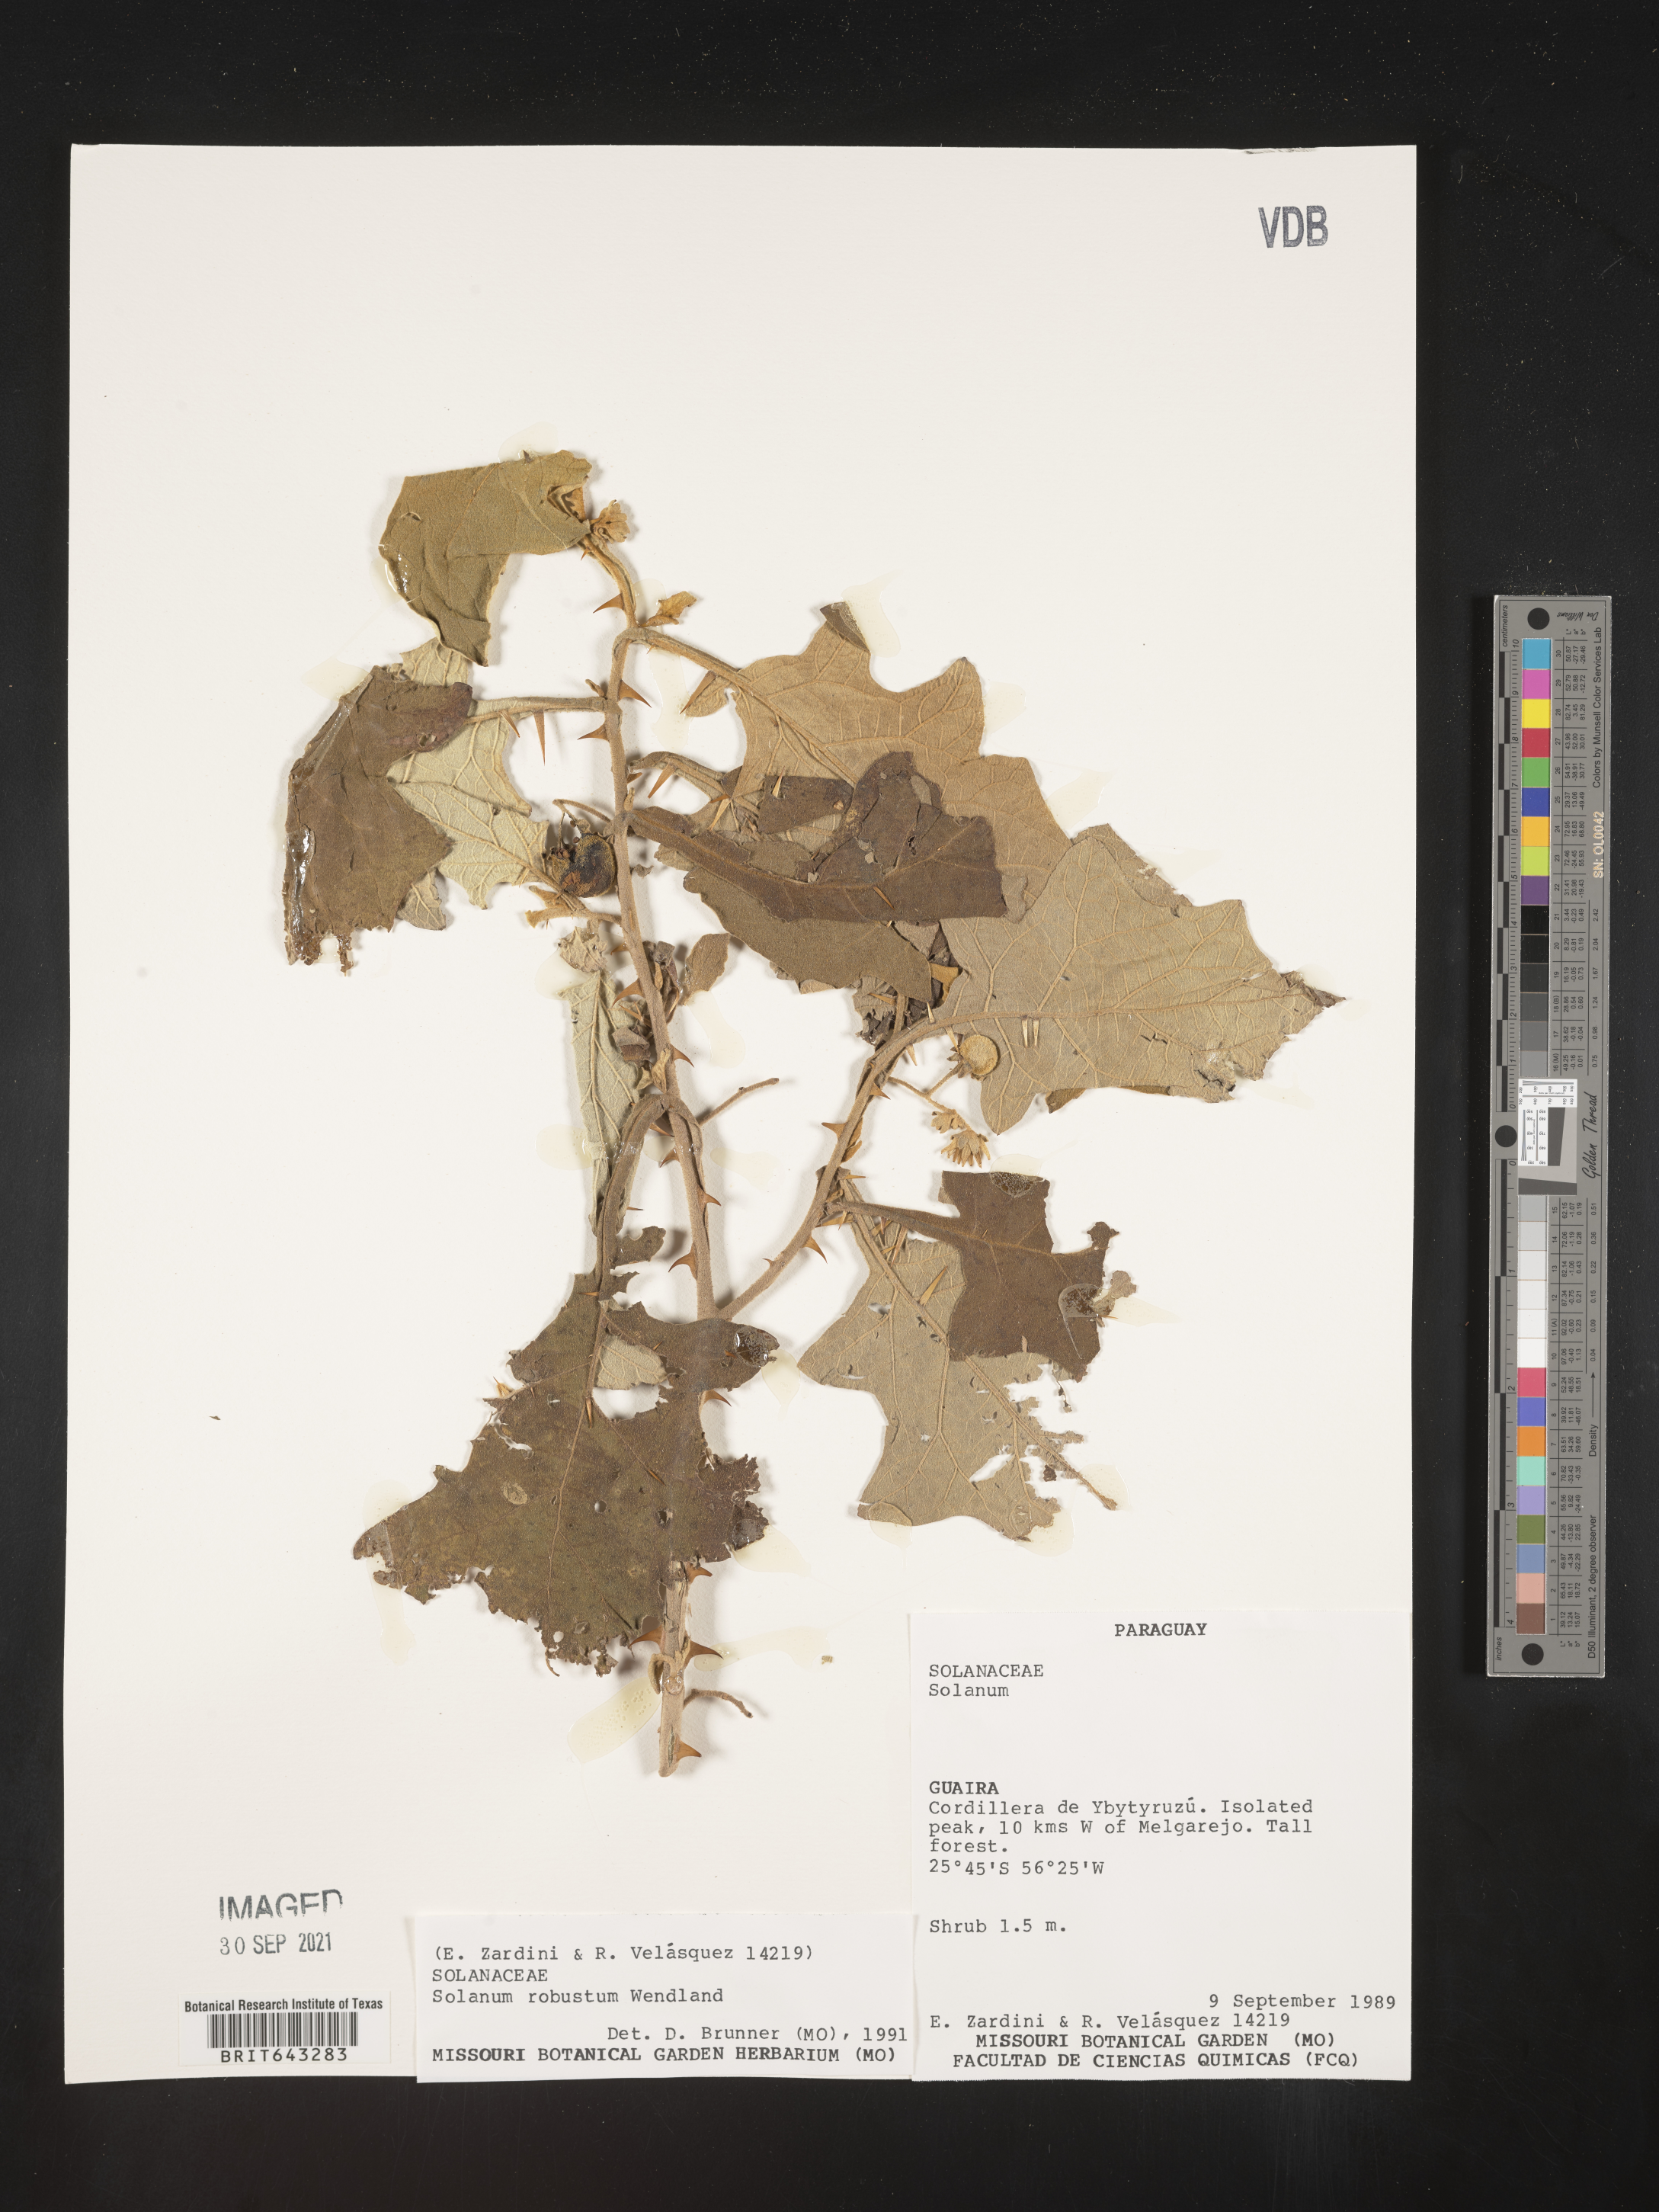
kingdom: Plantae
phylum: Tracheophyta
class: Magnoliopsida
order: Solanales
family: Solanaceae
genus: Solanum
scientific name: Solanum
